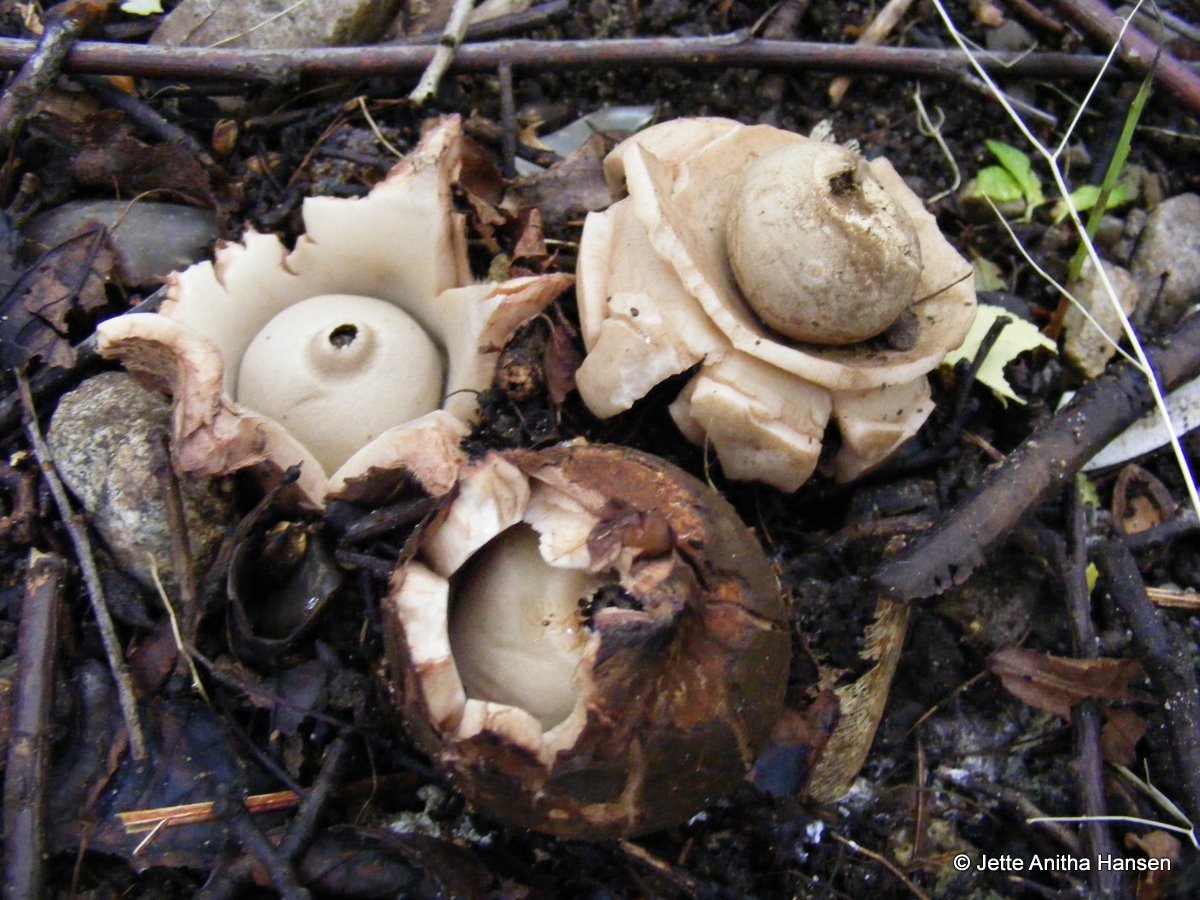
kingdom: Fungi
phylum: Basidiomycota
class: Agaricomycetes
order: Geastrales
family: Geastraceae
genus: Geastrum
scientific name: Geastrum michelianum
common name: kødet stjernebold
